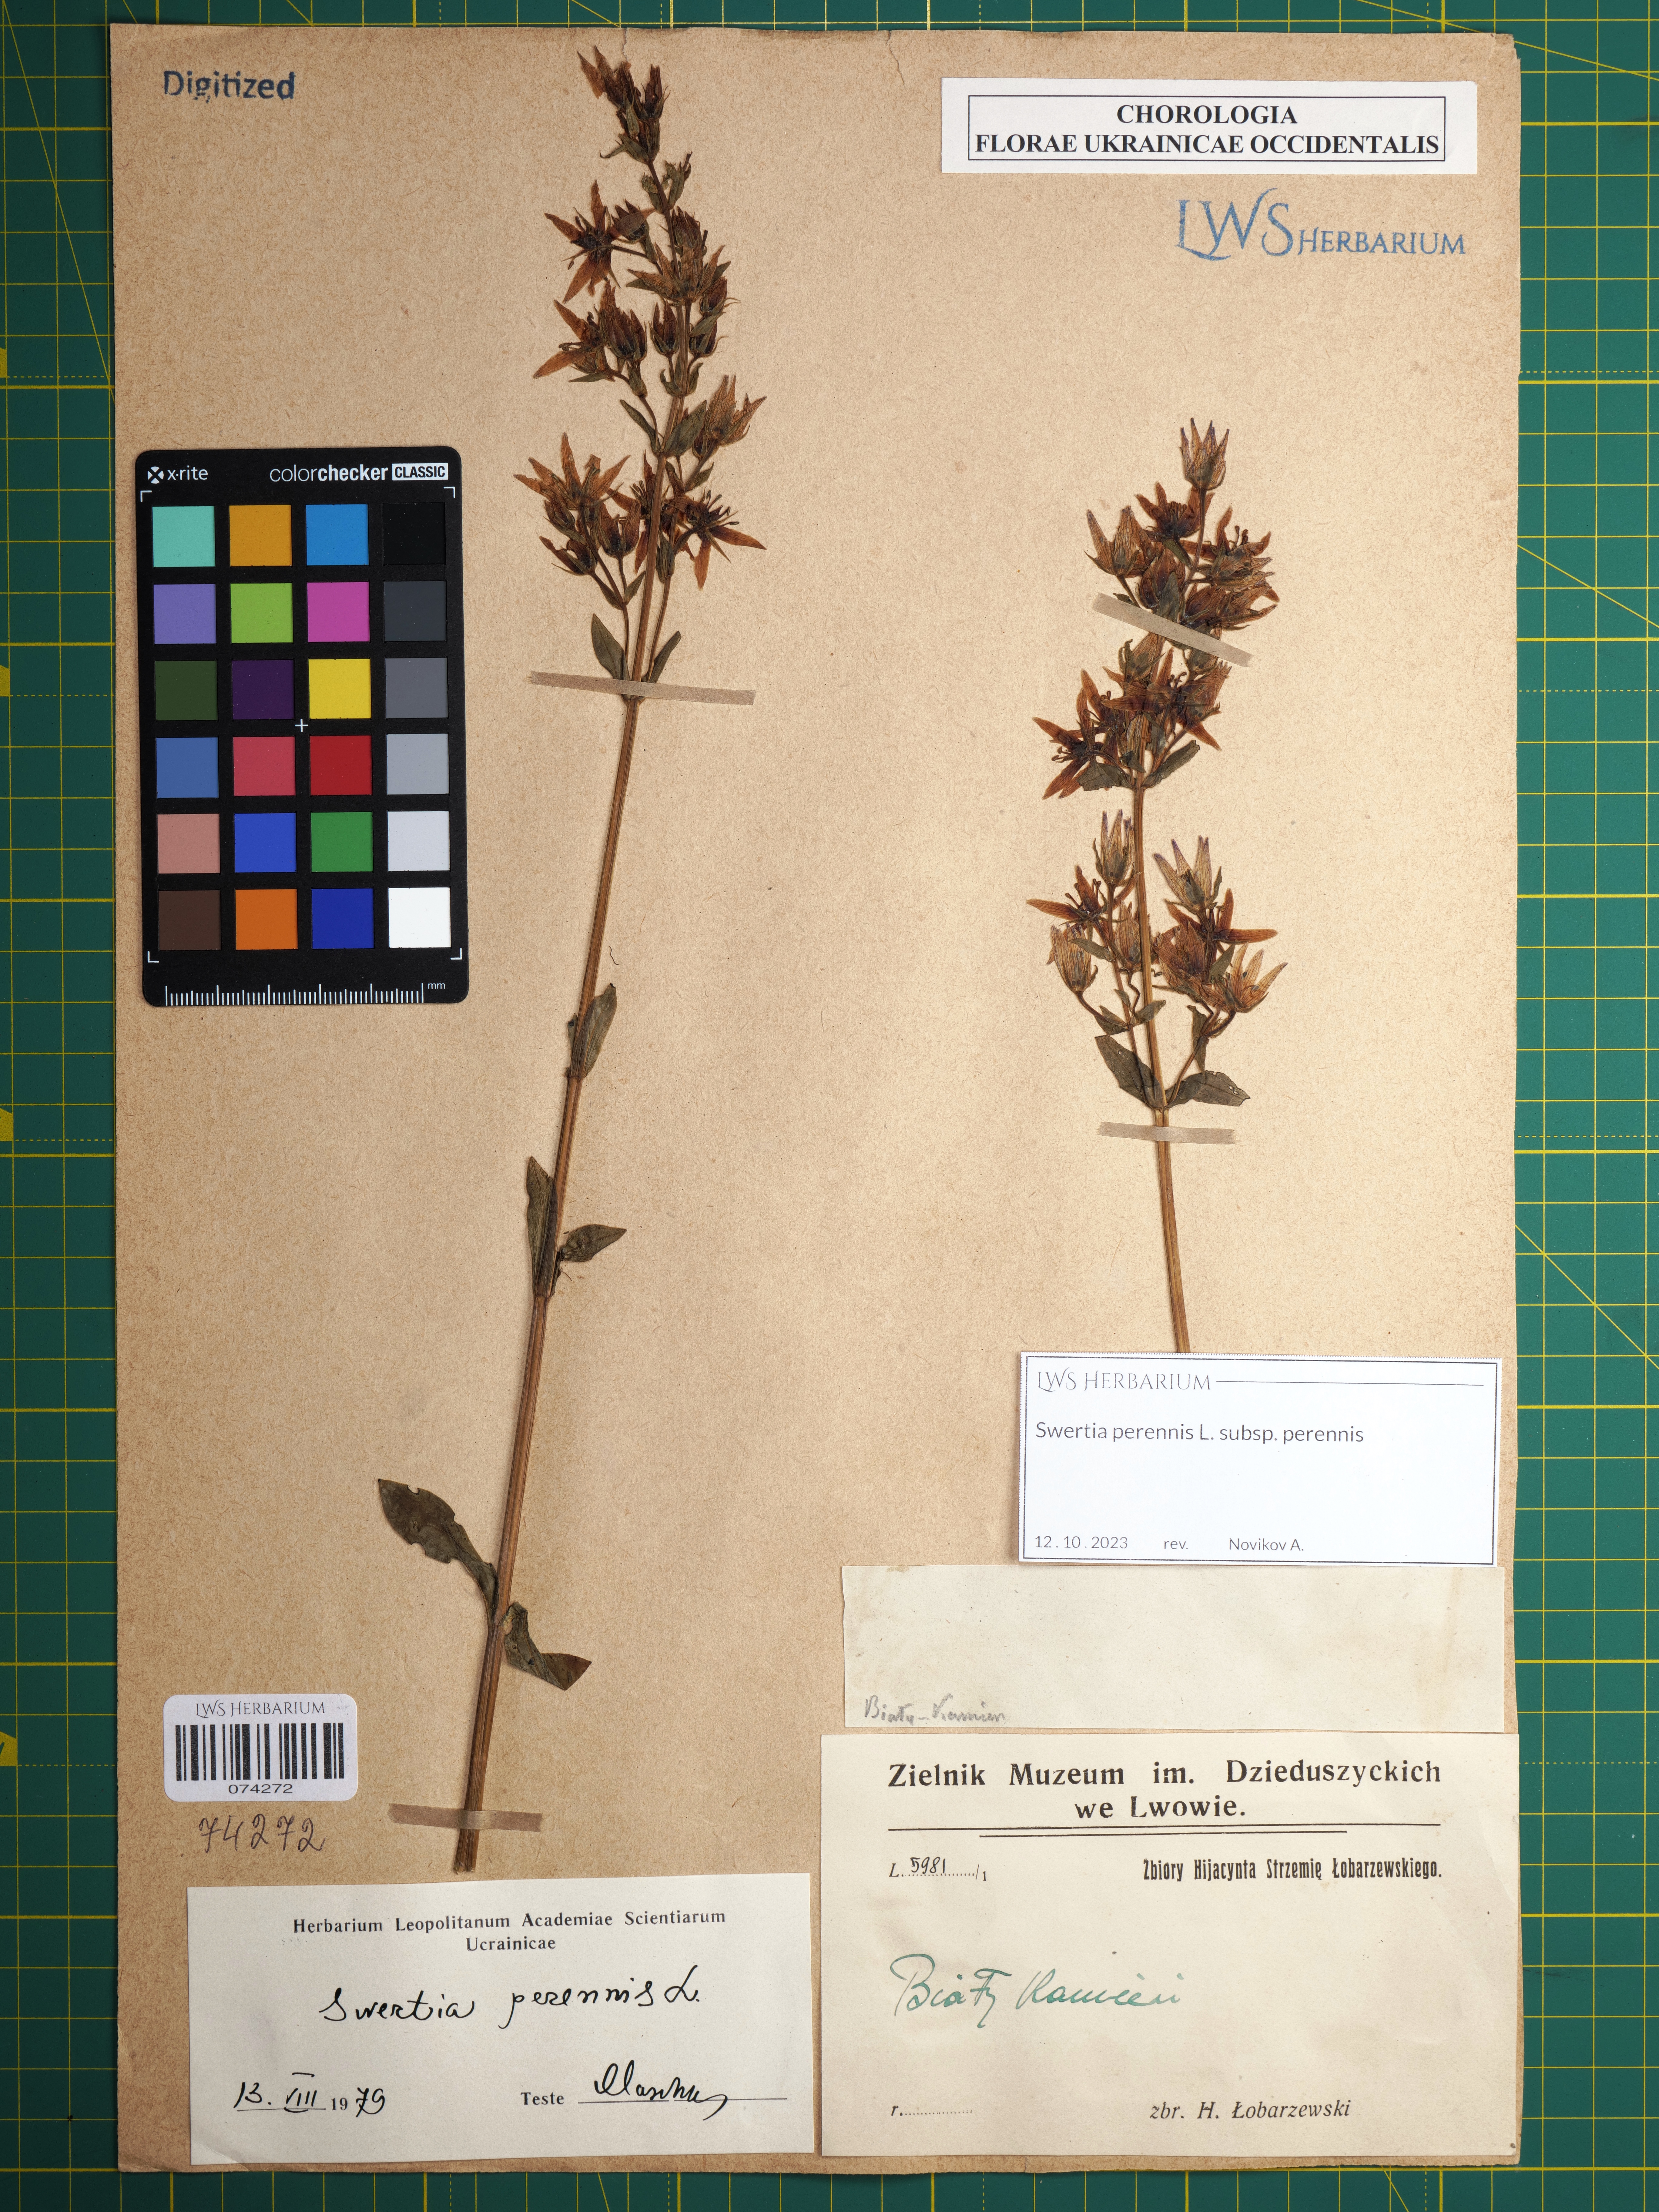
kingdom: Plantae
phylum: Tracheophyta
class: Magnoliopsida
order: Gentianales
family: Gentianaceae
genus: Swertia
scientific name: Swertia perennis
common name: Alpine bog swertia
